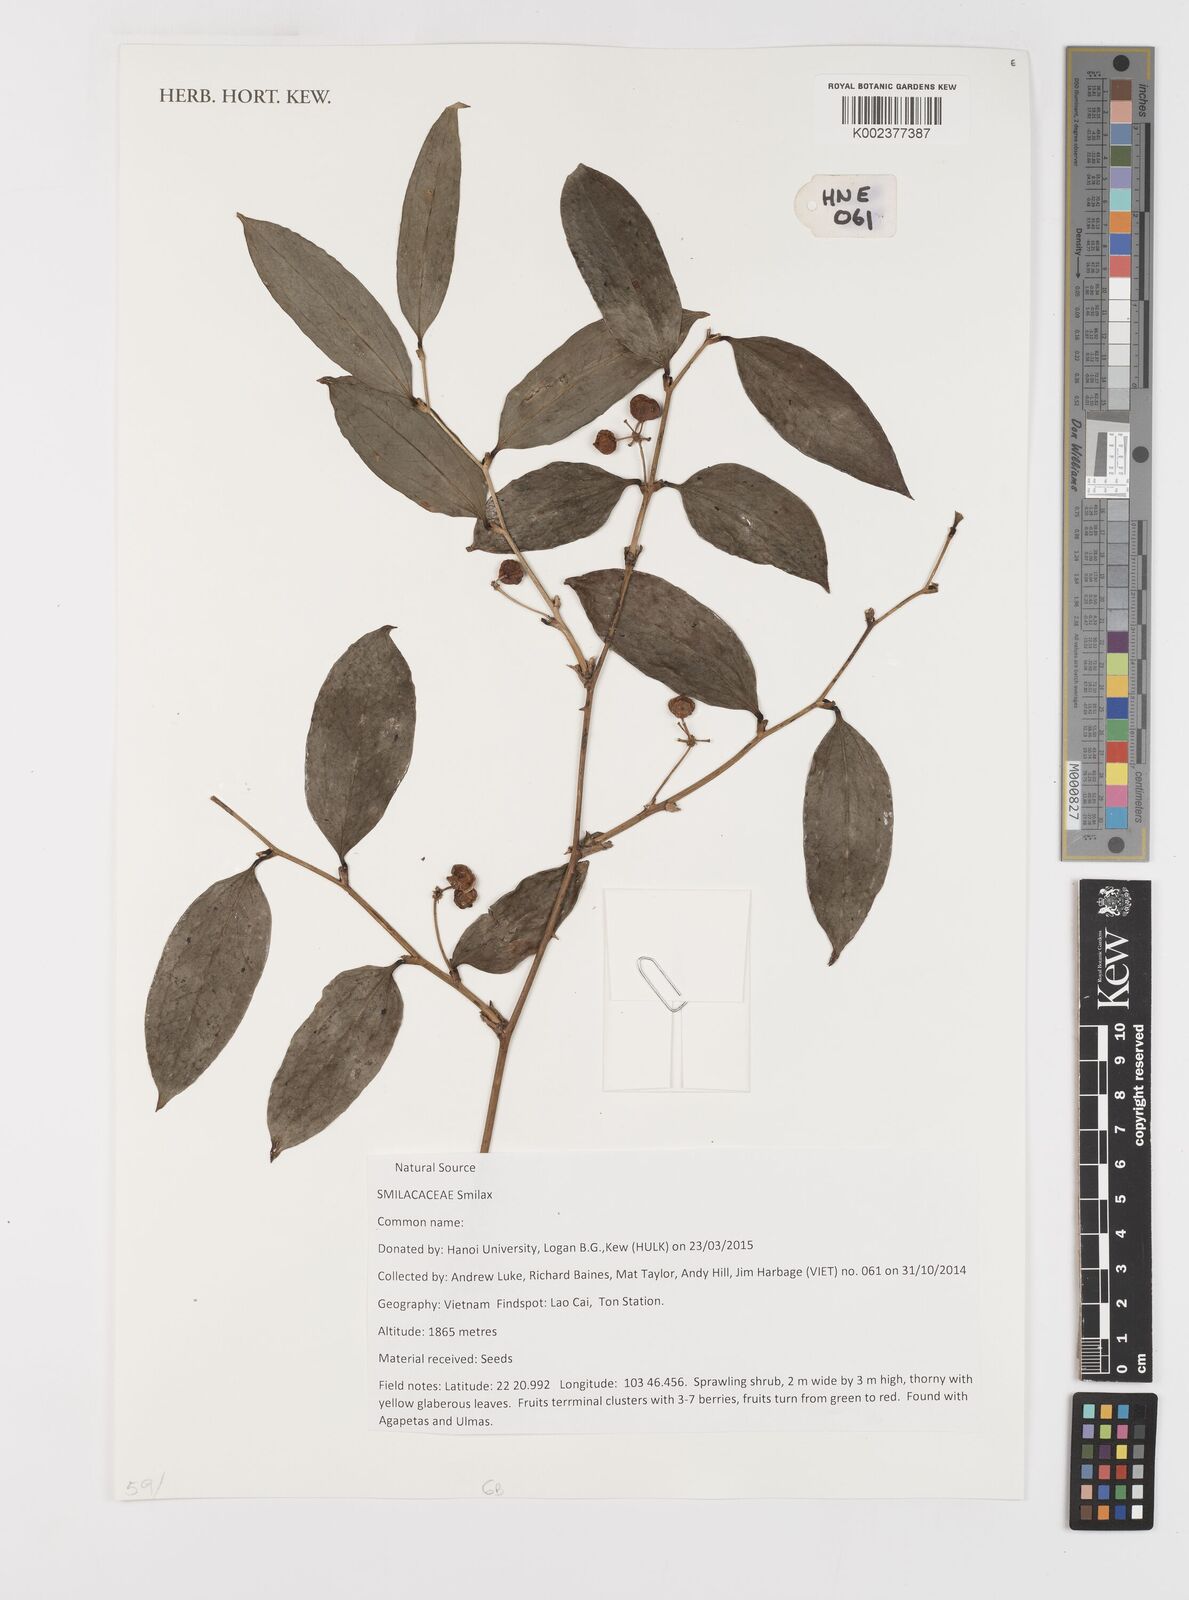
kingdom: Plantae
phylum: Tracheophyta
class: Liliopsida
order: Liliales
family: Smilacaceae
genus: Smilax
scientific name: Smilax
